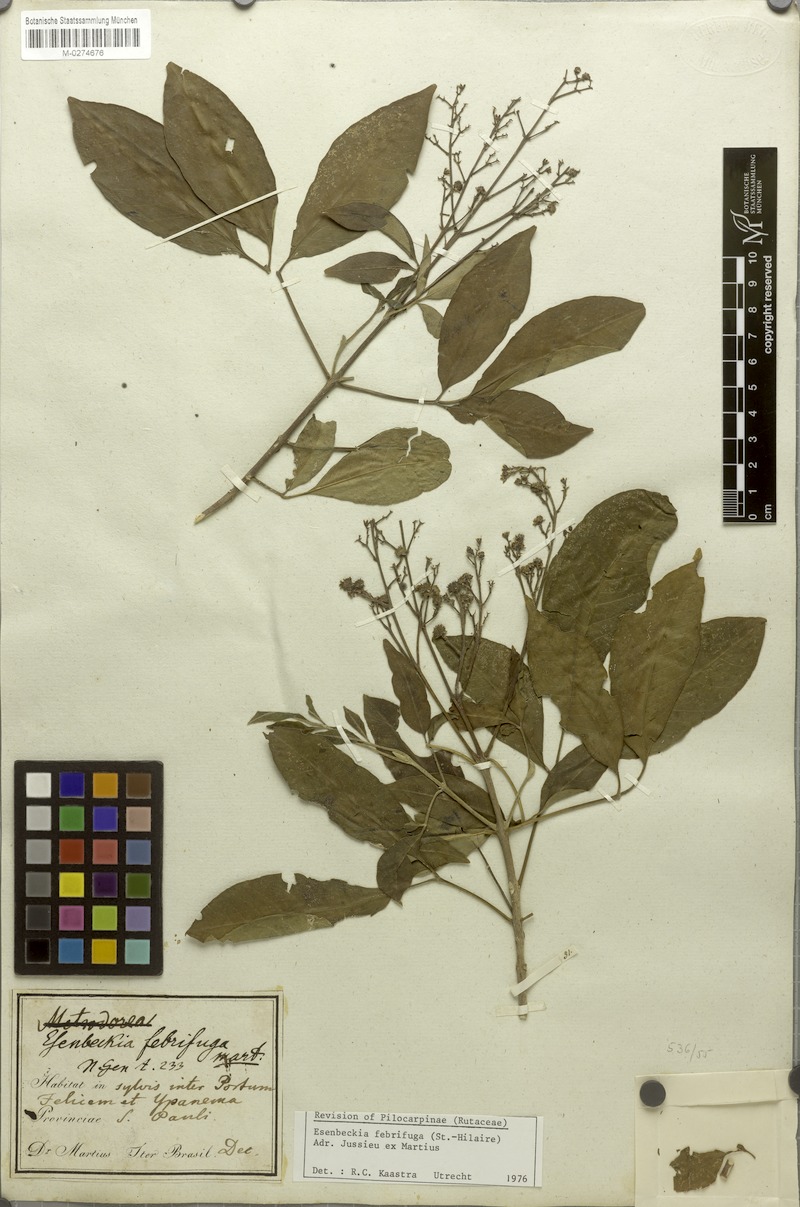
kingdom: Plantae
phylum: Tracheophyta
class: Magnoliopsida
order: Sapindales
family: Rutaceae
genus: Esenbeckia
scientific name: Esenbeckia febrifuga
